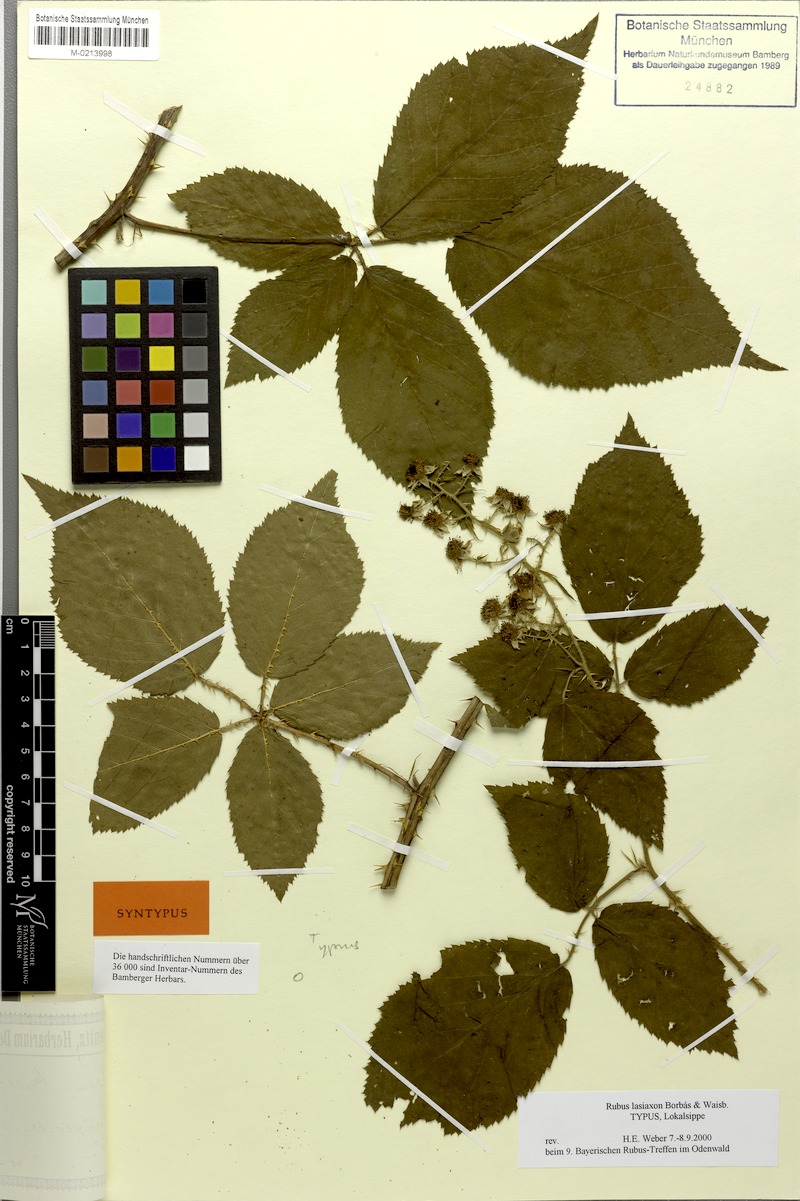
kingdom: Plantae
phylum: Tracheophyta
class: Magnoliopsida
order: Rosales
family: Rosaceae
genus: Rubus
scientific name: Rubus ferox
